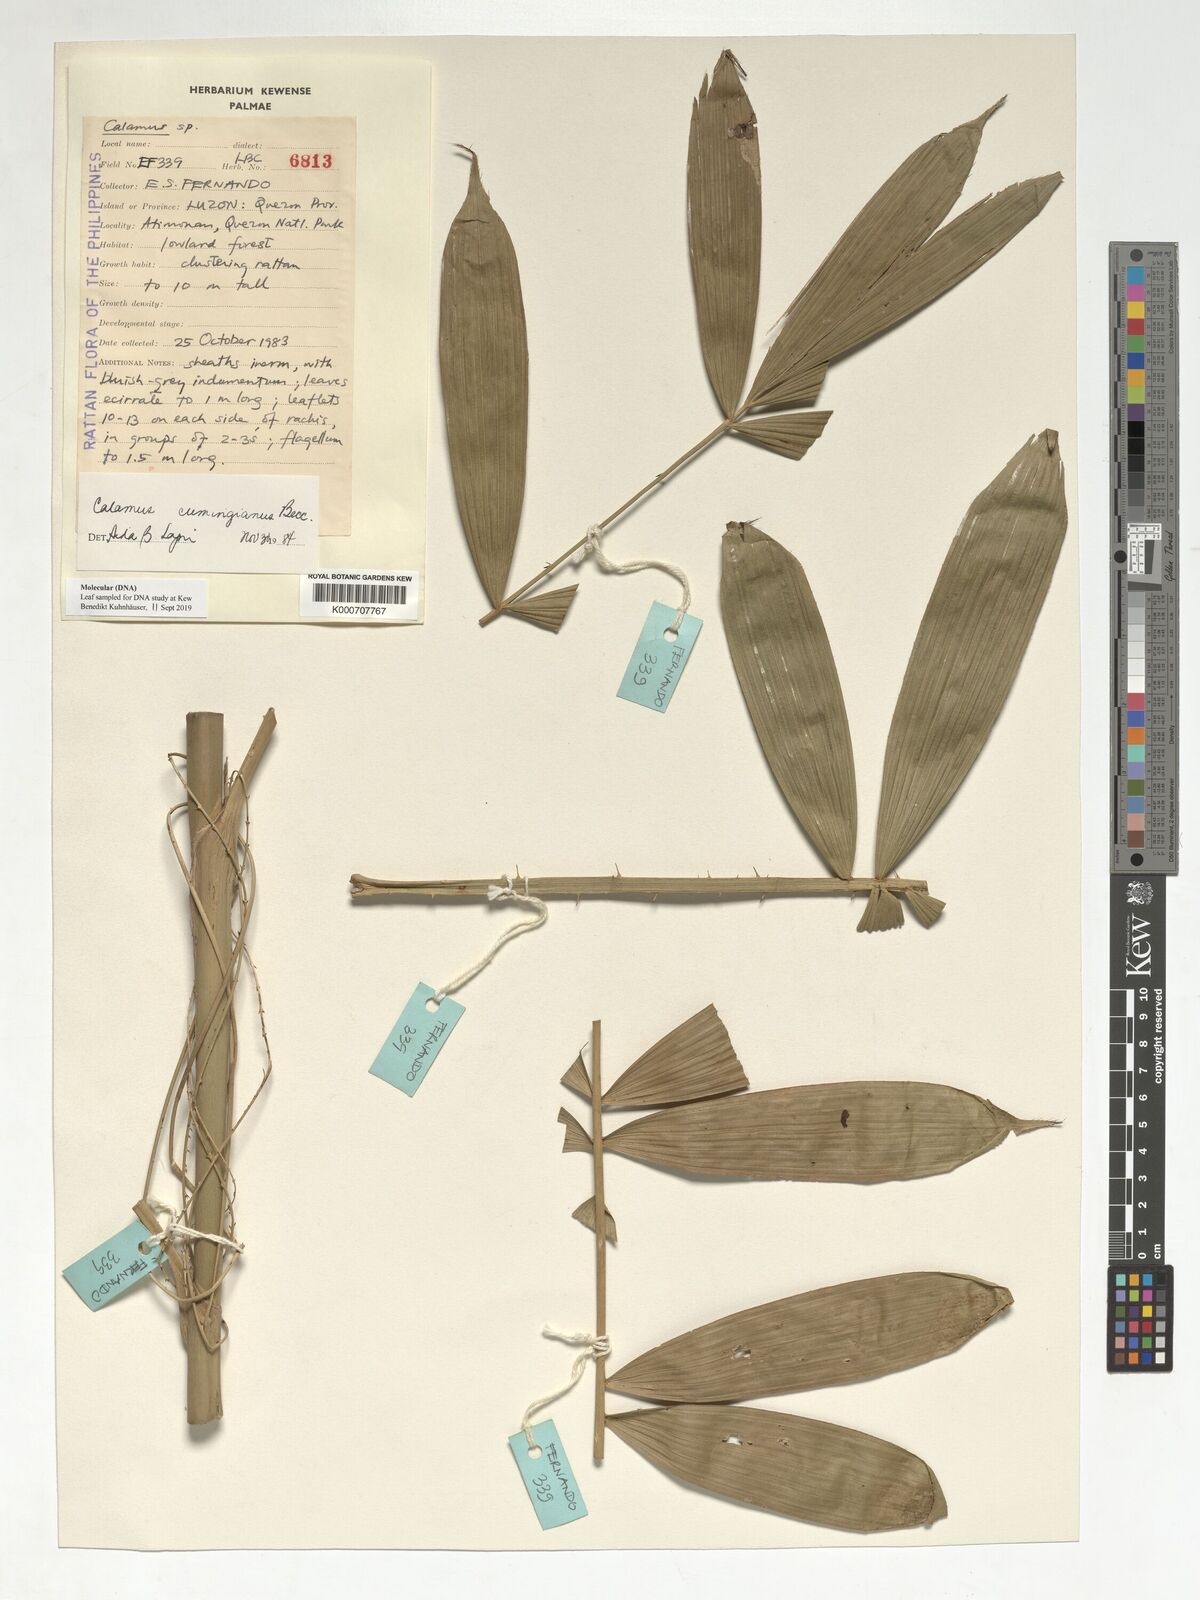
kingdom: Plantae
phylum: Tracheophyta
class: Liliopsida
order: Arecales
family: Arecaceae
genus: Calamus
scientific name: Calamus cumingianus
